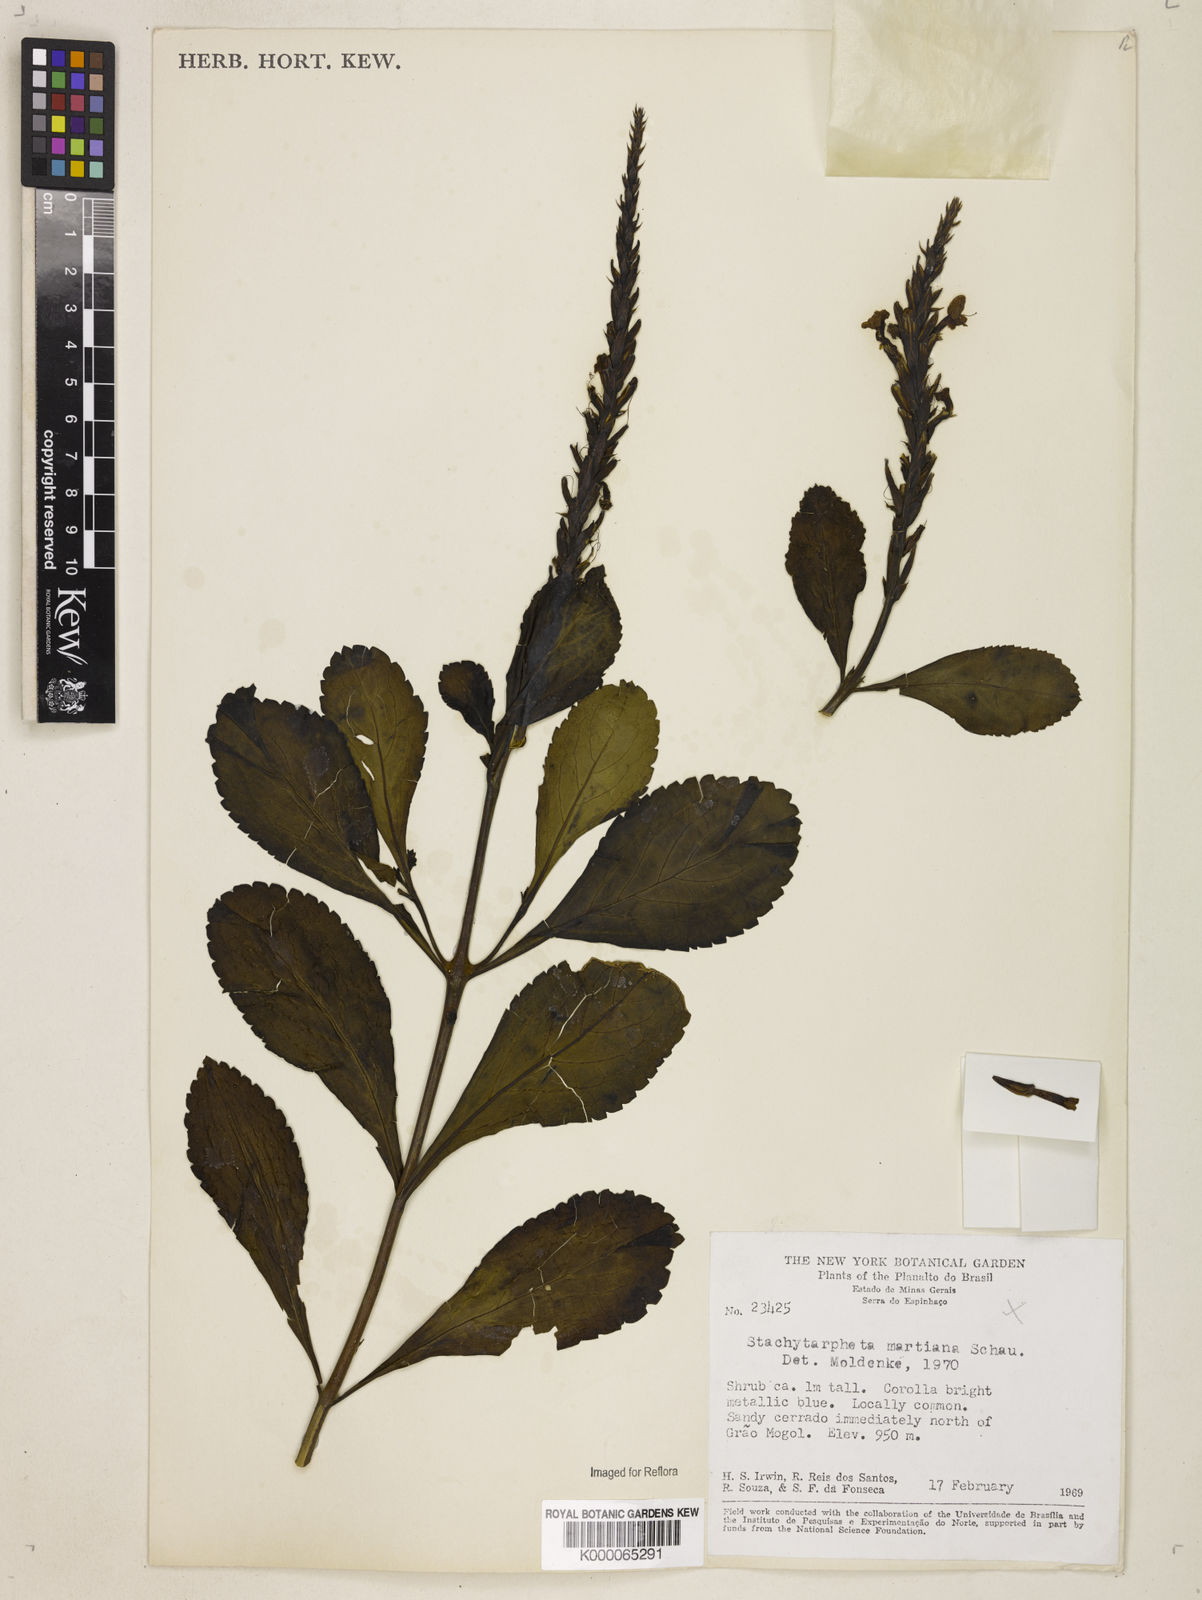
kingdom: Plantae
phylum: Tracheophyta
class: Magnoliopsida
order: Lamiales
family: Verbenaceae
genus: Stachytarpheta
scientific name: Stachytarpheta martiana
